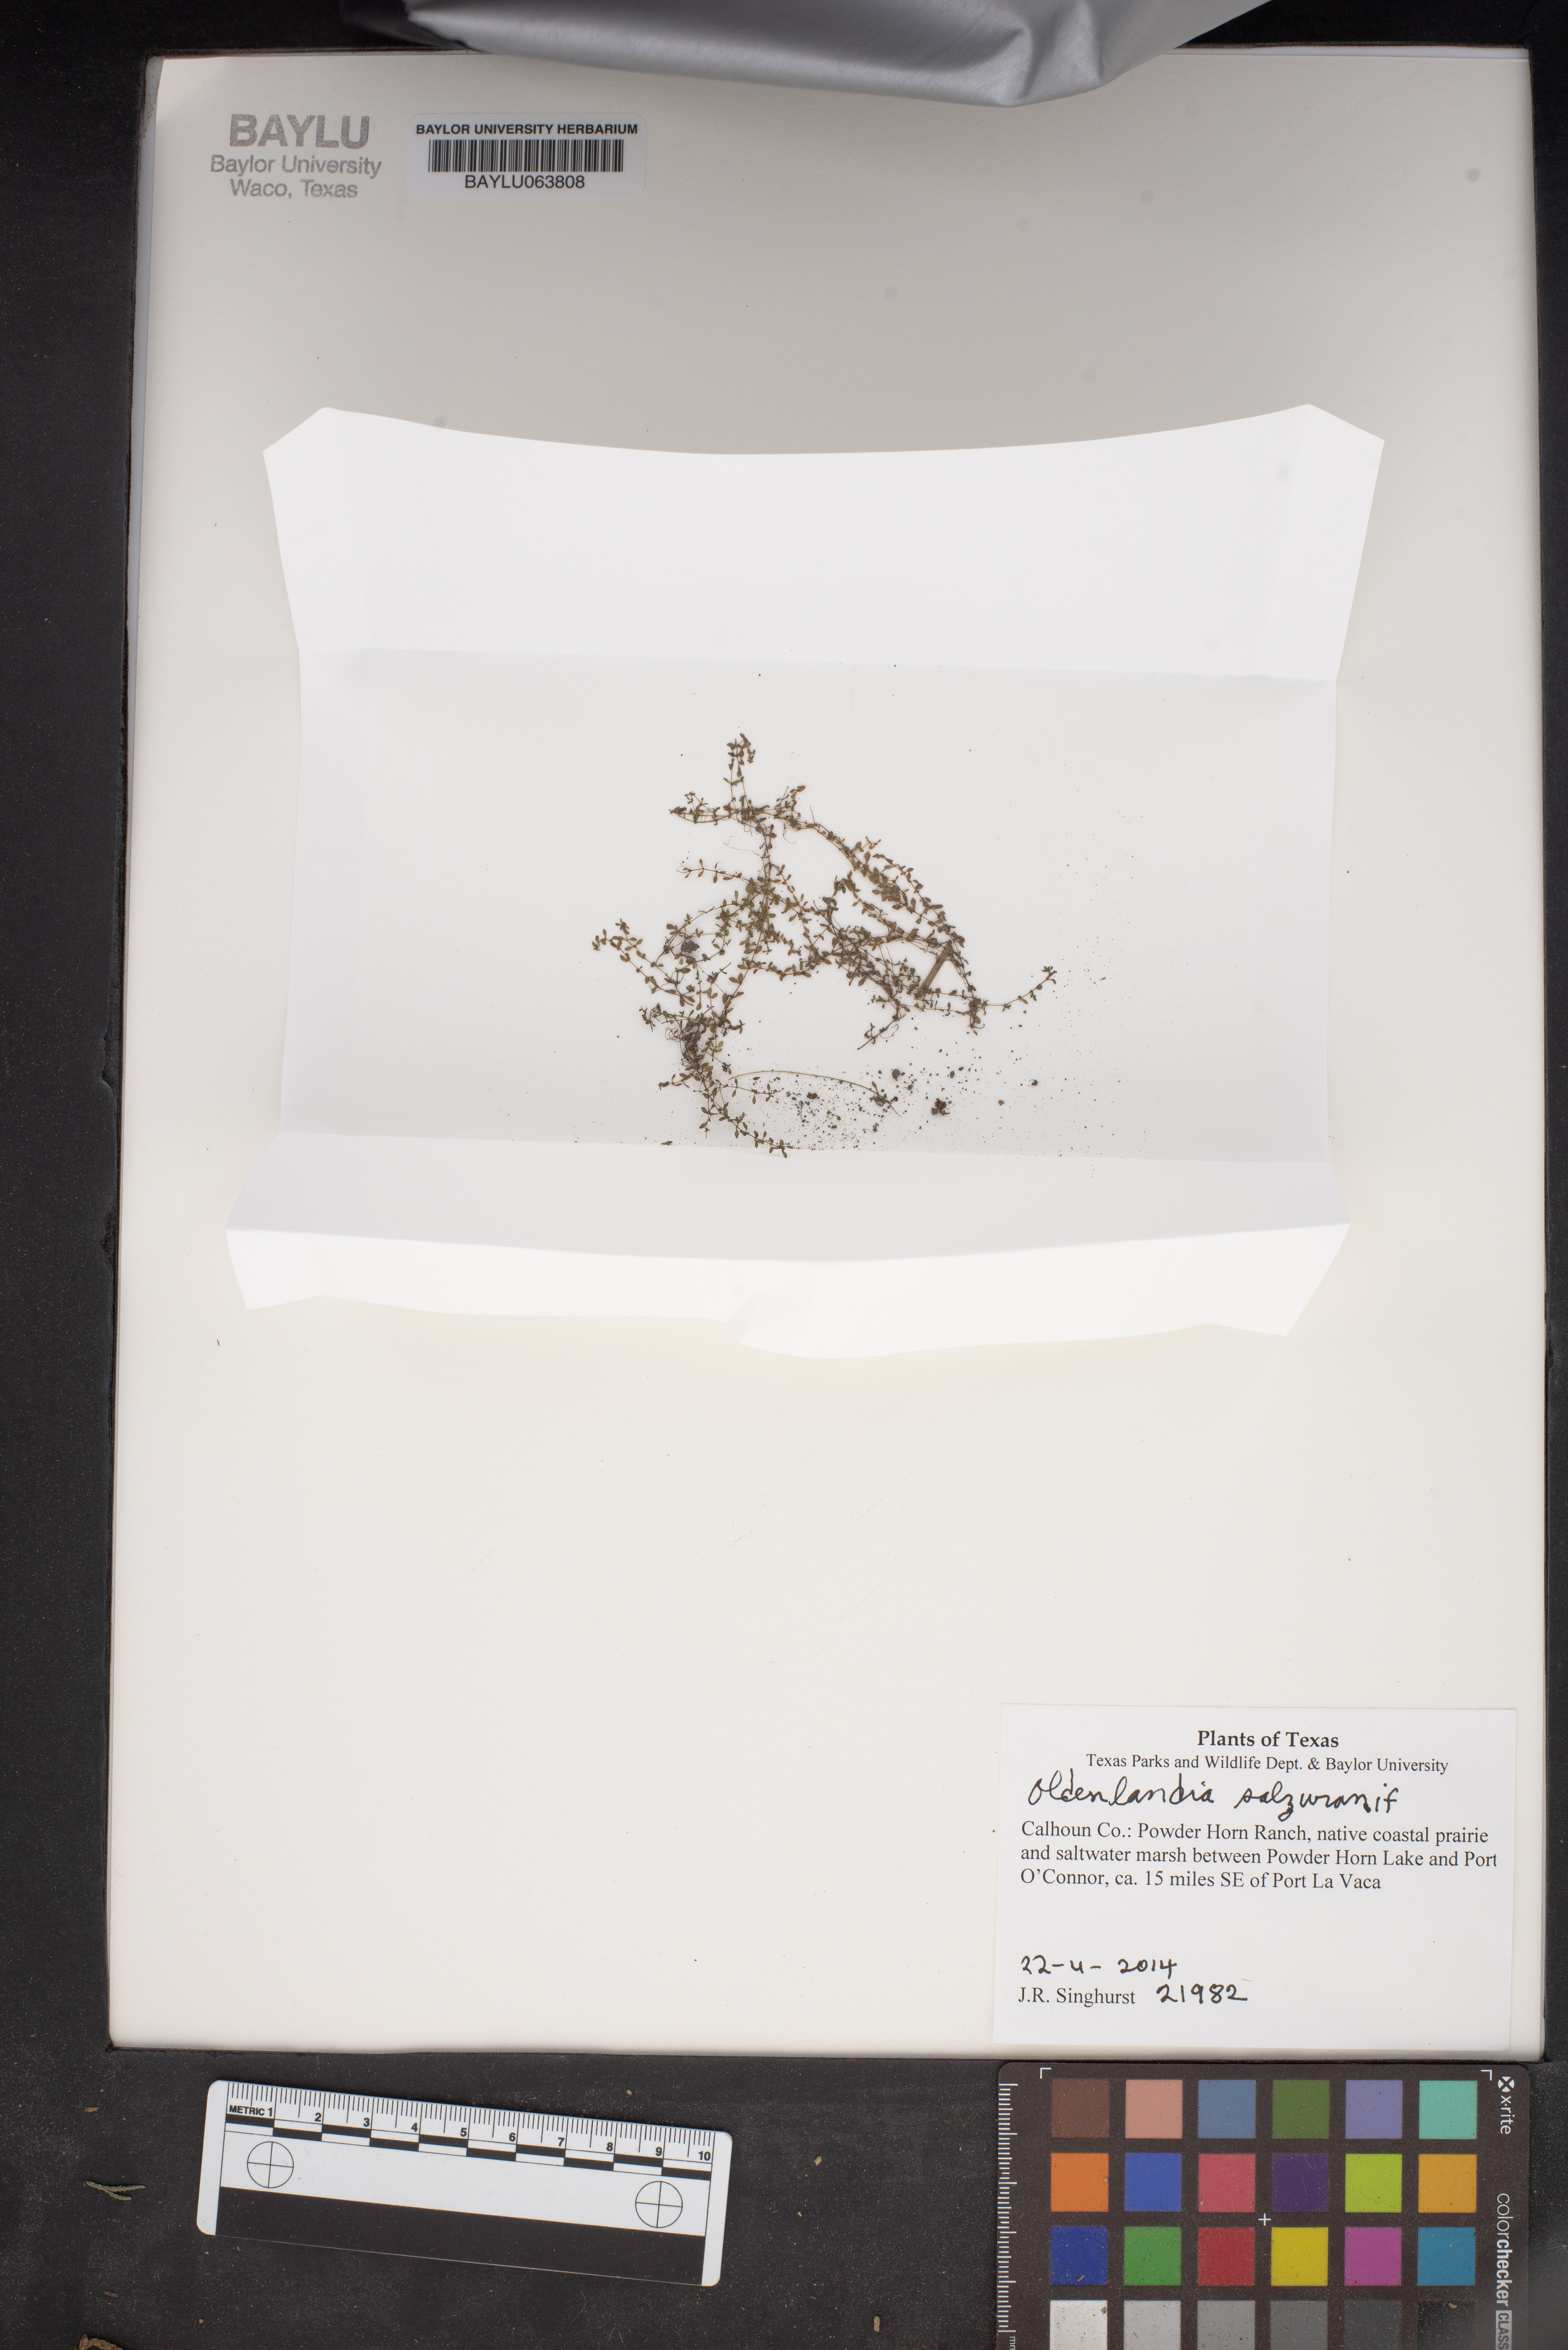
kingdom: Plantae
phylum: Tracheophyta
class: Magnoliopsida
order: Gentianales
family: Rubiaceae
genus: Oldenlandia
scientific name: Oldenlandia salzmannii
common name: Salzmann's mille graines
